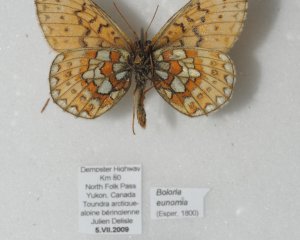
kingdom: Animalia
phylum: Arthropoda
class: Insecta
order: Lepidoptera
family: Nymphalidae
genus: Boloria
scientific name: Boloria eunomia
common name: Bog Fritillary
